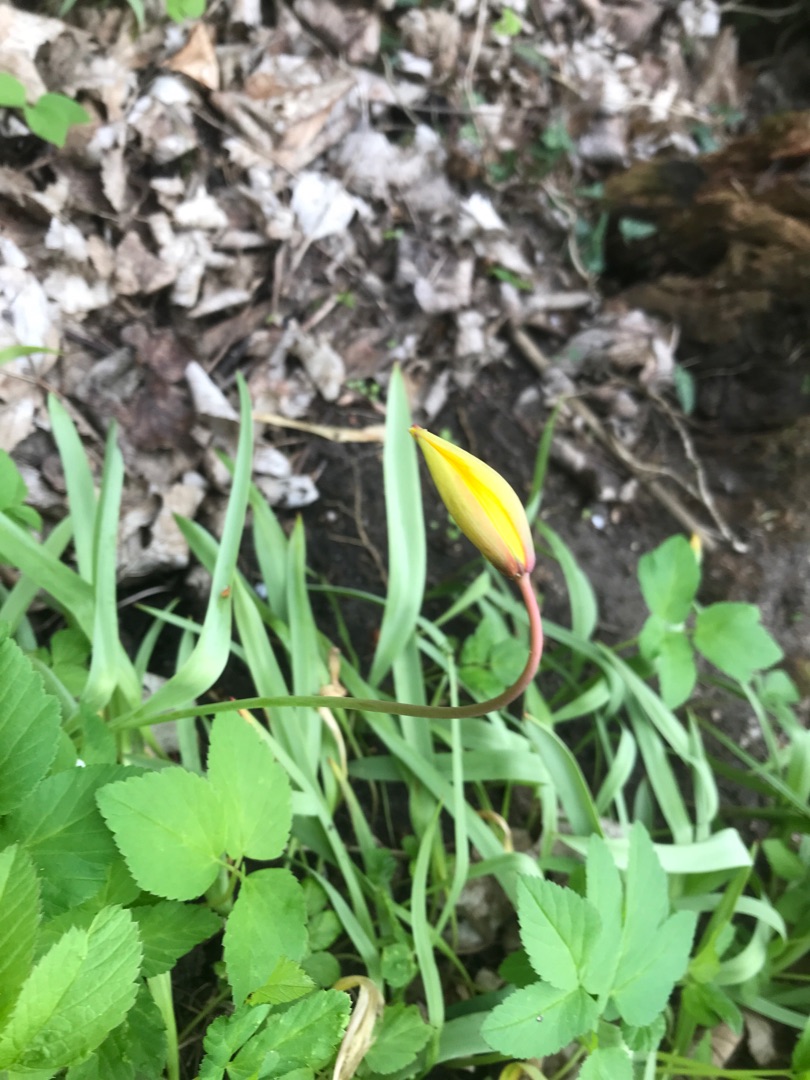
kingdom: Plantae
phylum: Tracheophyta
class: Liliopsida
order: Liliales
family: Liliaceae
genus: Tulipa
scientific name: Tulipa sylvestris
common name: Vild tulipan
